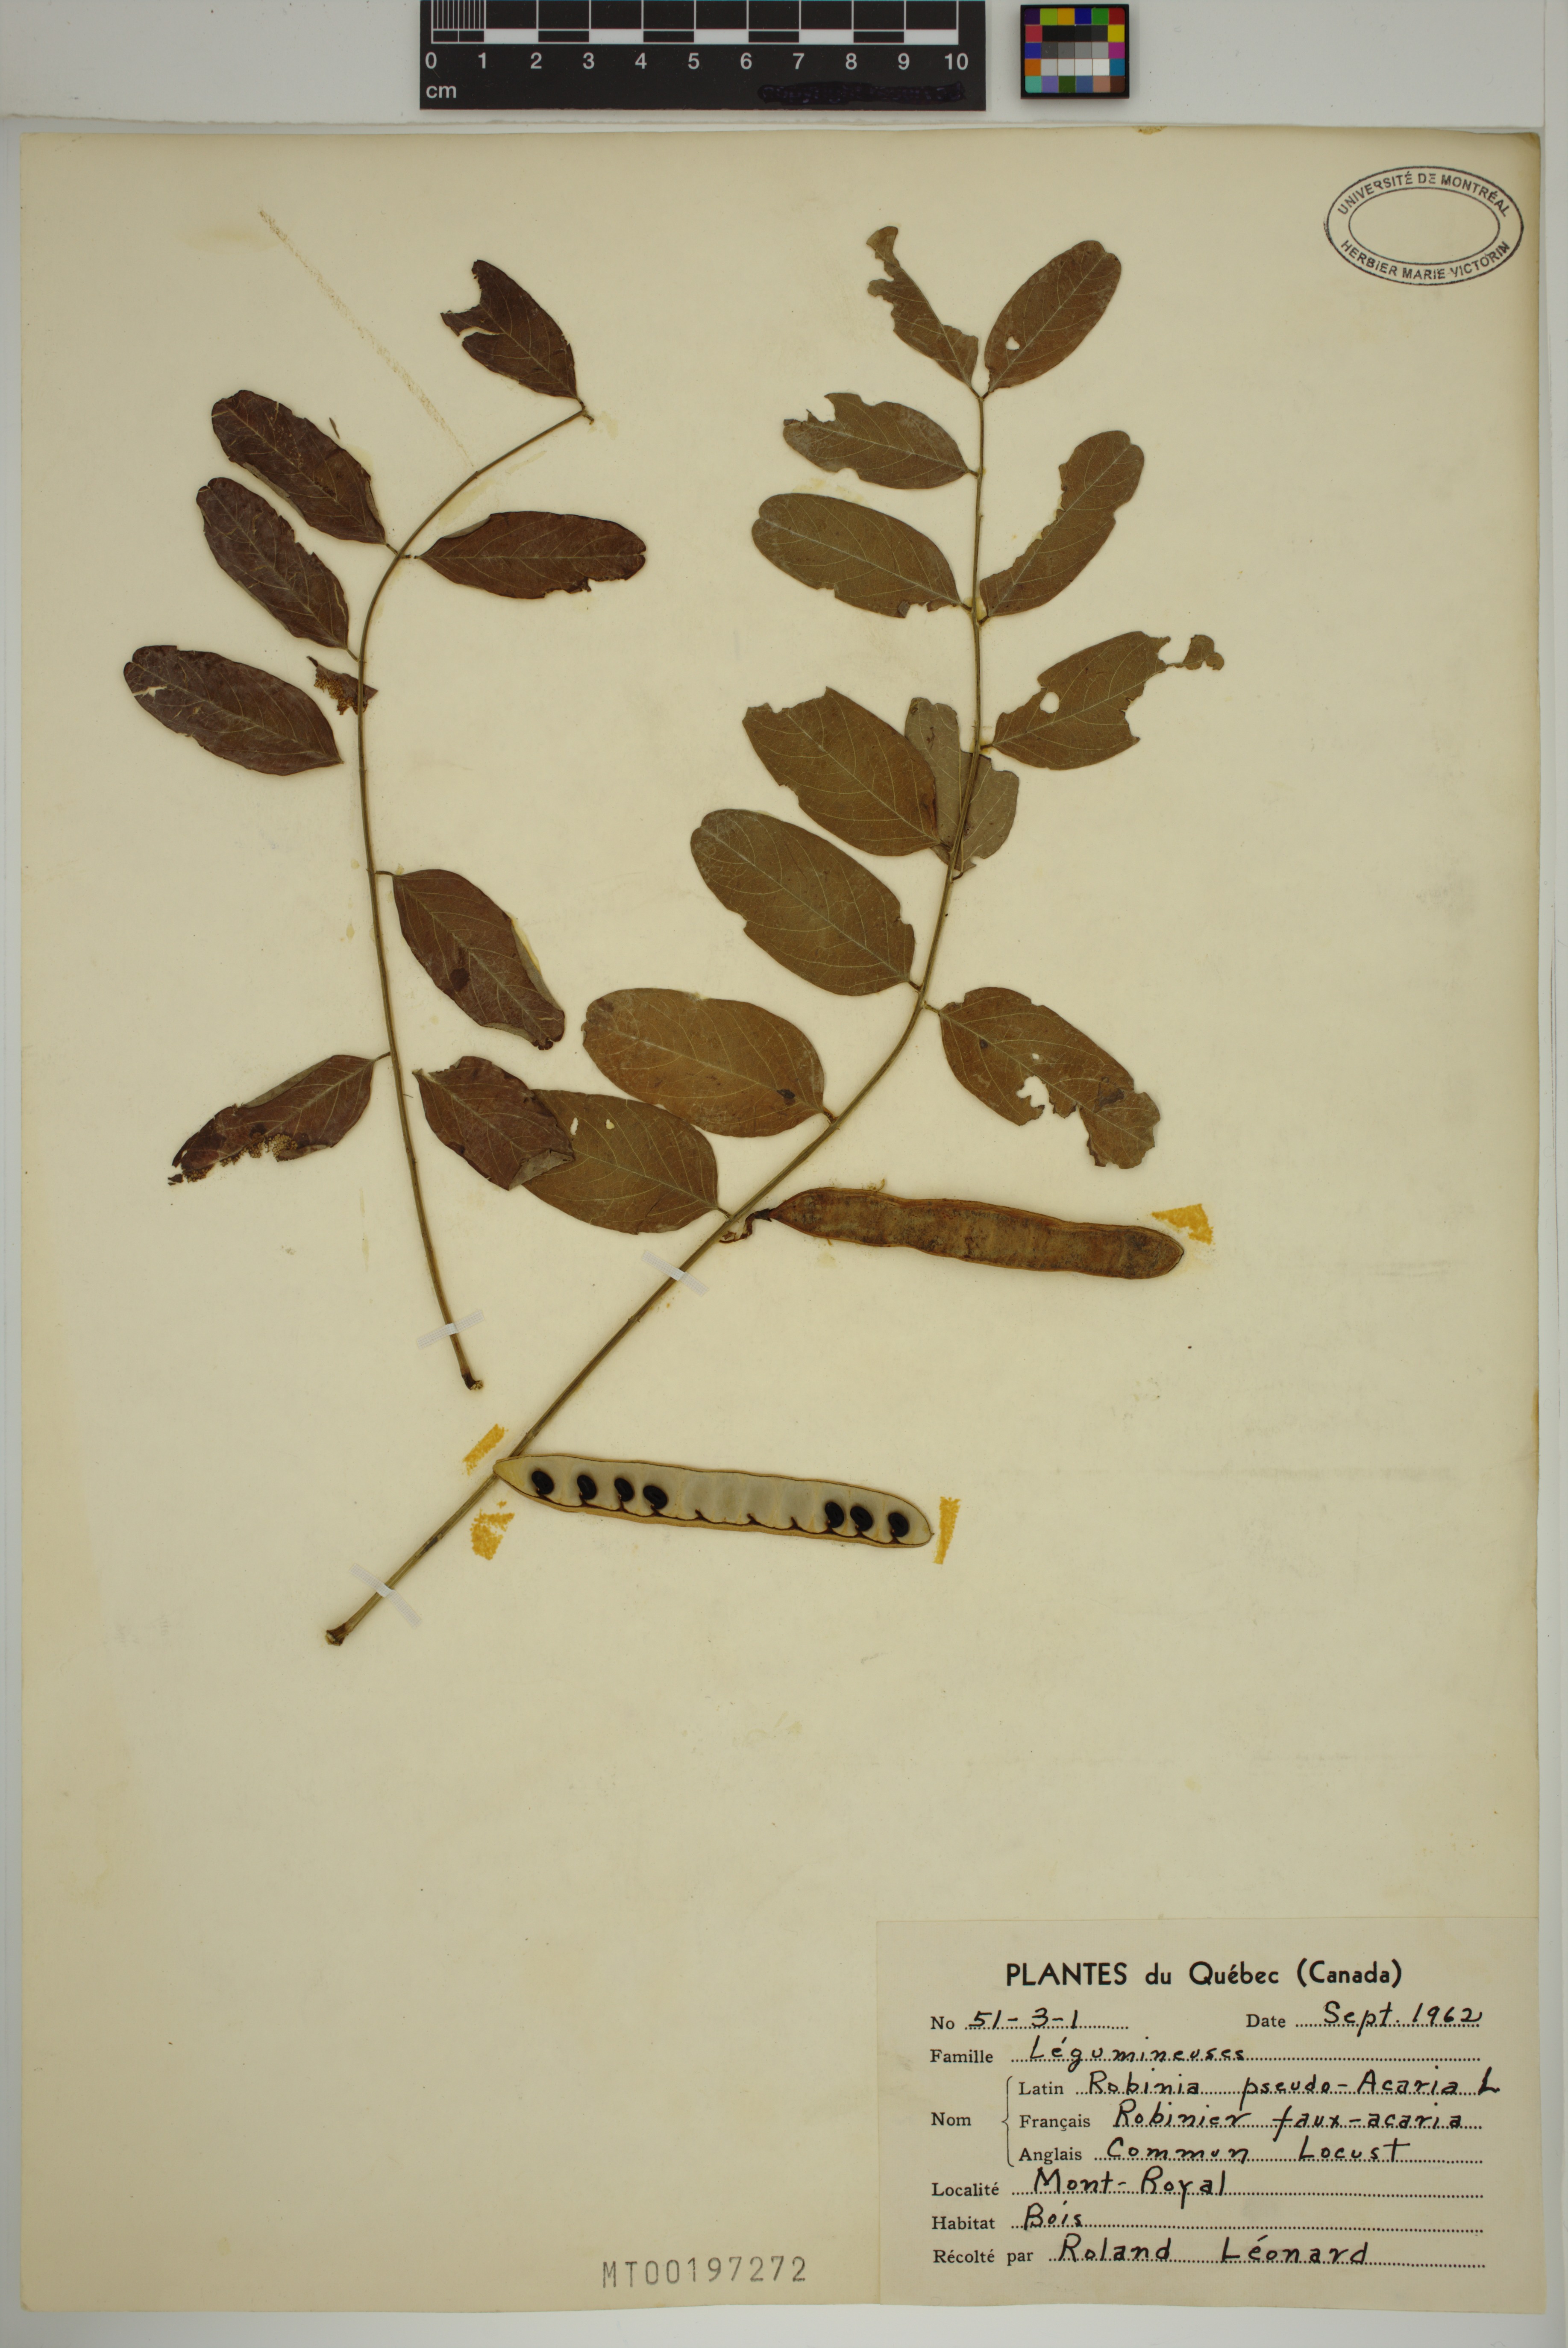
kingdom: Plantae
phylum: Tracheophyta
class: Magnoliopsida
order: Fabales
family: Fabaceae
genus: Robinia
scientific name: Robinia pseudoacacia
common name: Black locust
